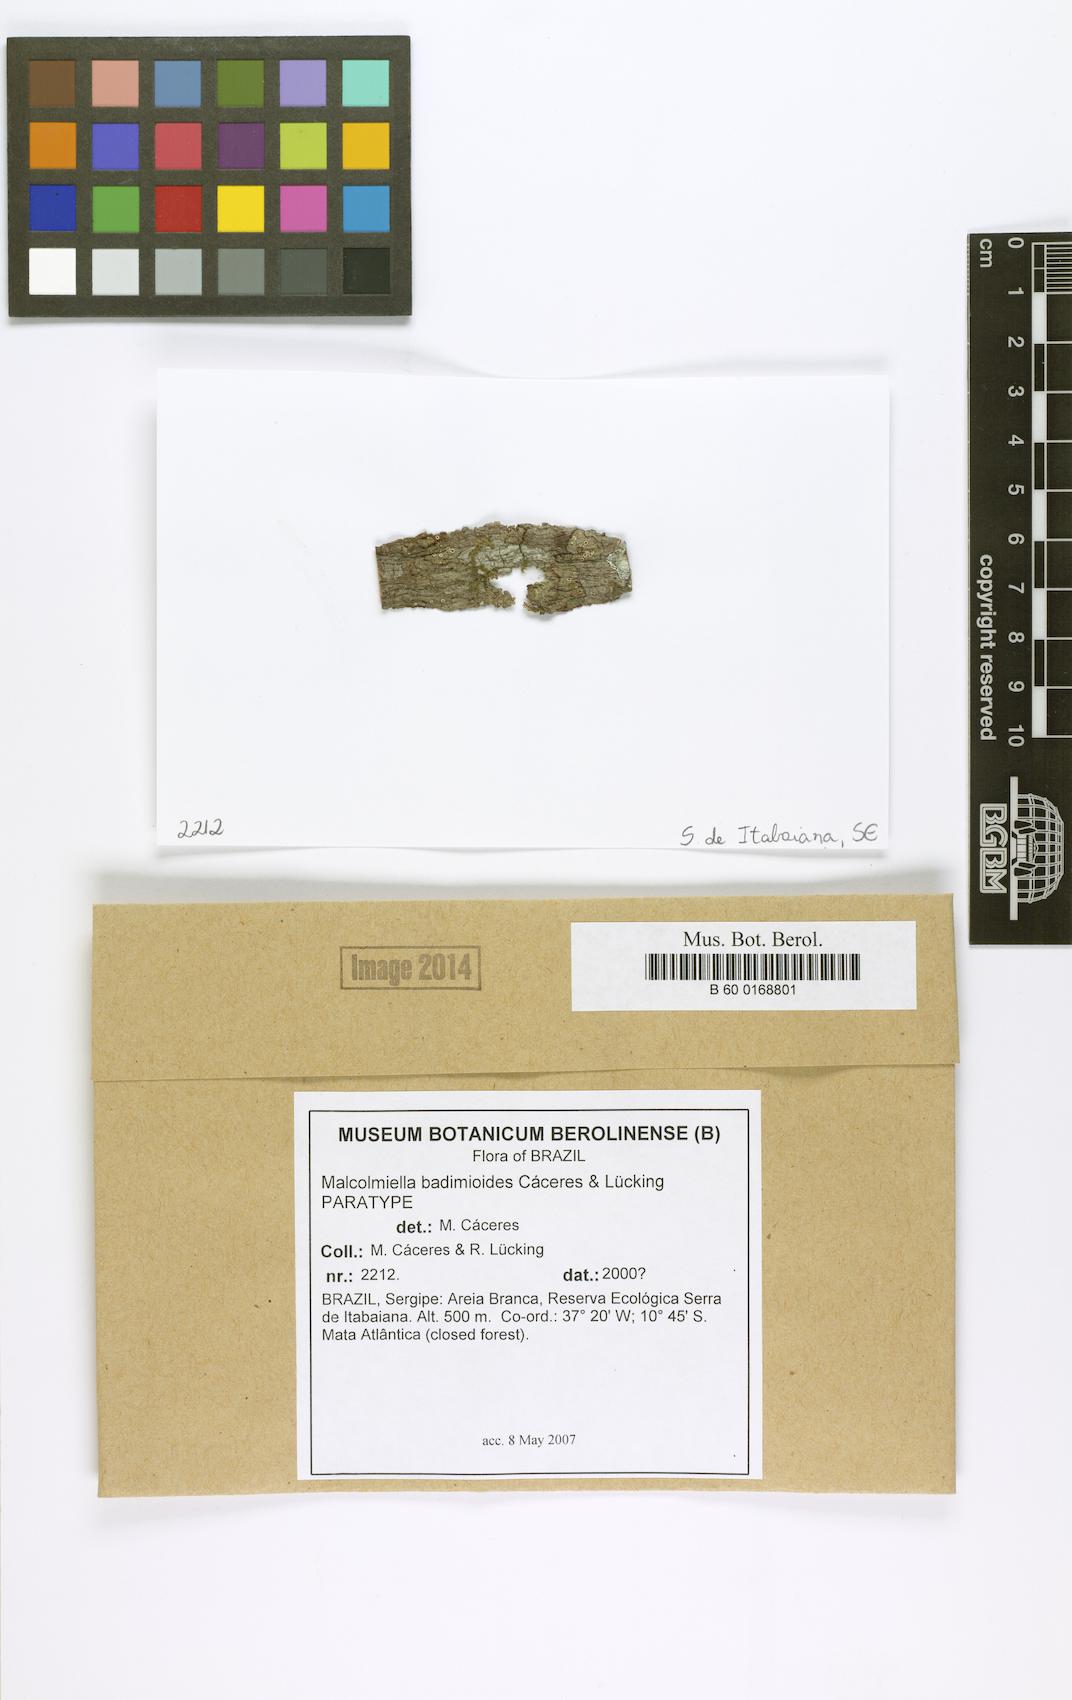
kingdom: Fungi
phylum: Ascomycota
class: Lecanoromycetes
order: Lecanorales
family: Malmideaceae
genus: Malmidea
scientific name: Malmidea badimioides
